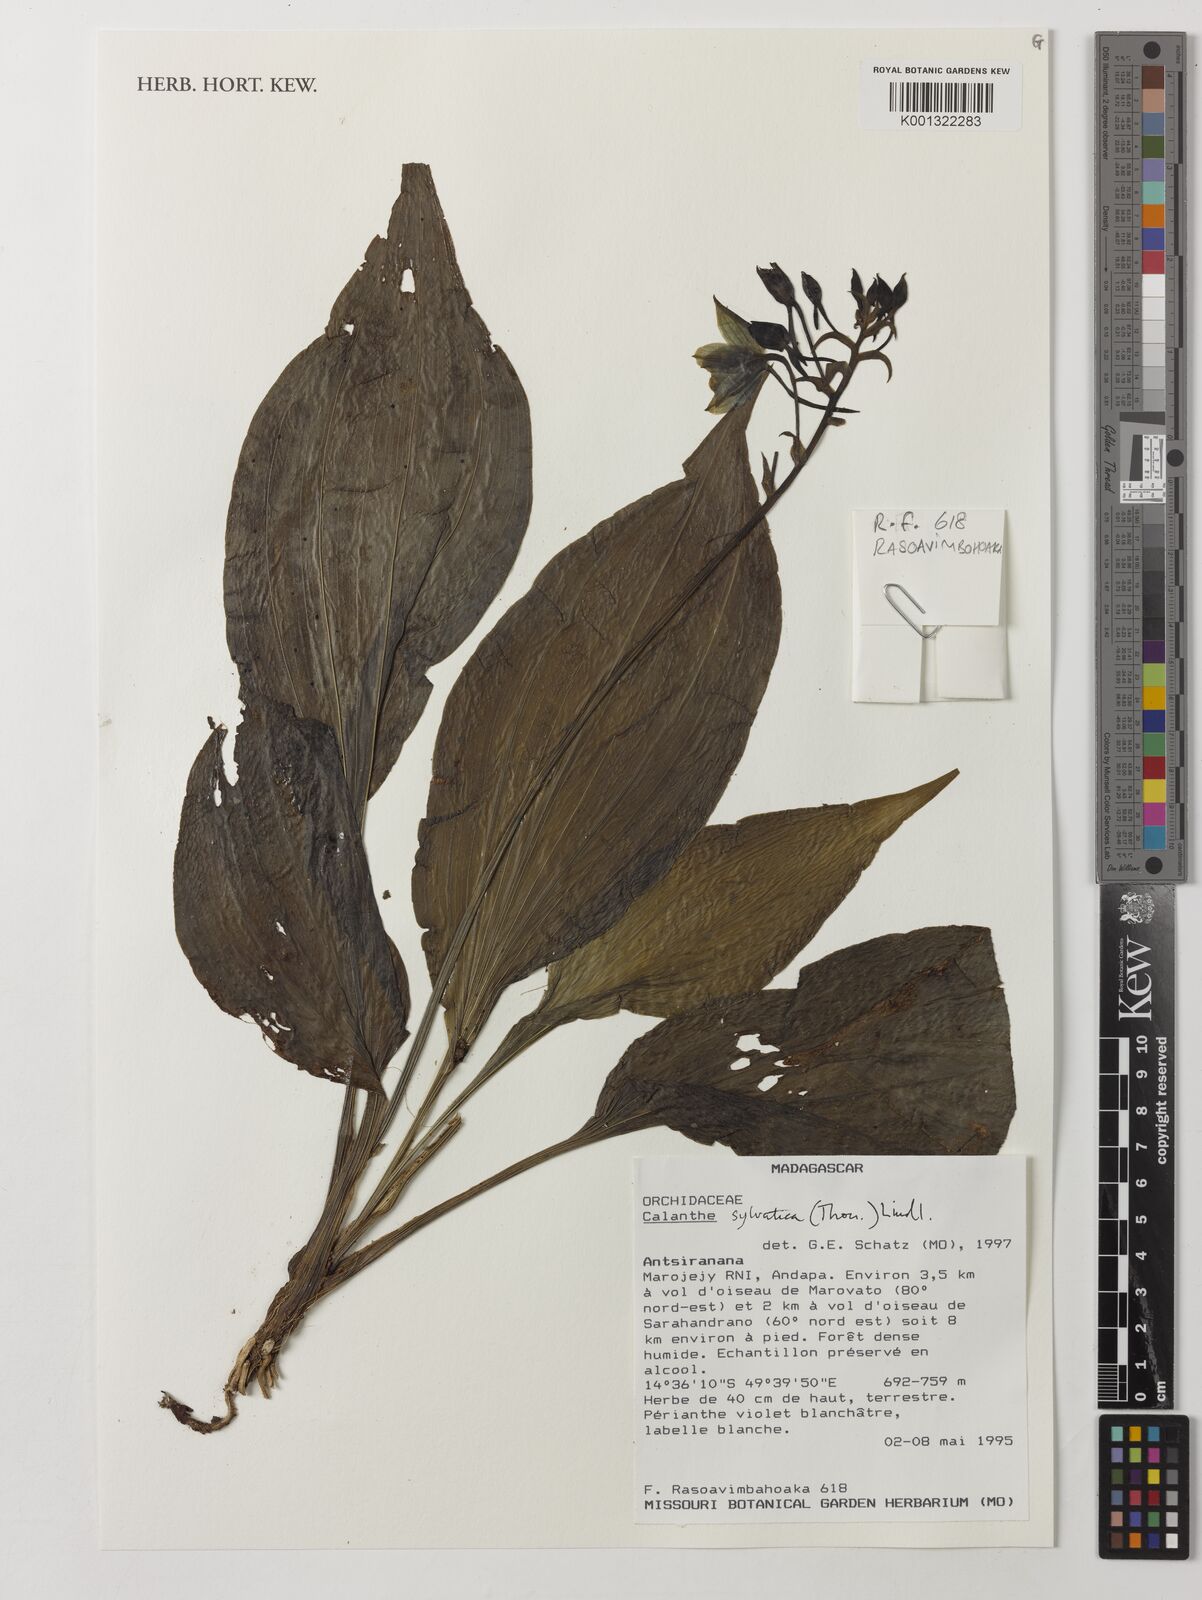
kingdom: Plantae
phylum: Tracheophyta
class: Liliopsida
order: Asparagales
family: Orchidaceae
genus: Calanthe
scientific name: Calanthe sylvatica
